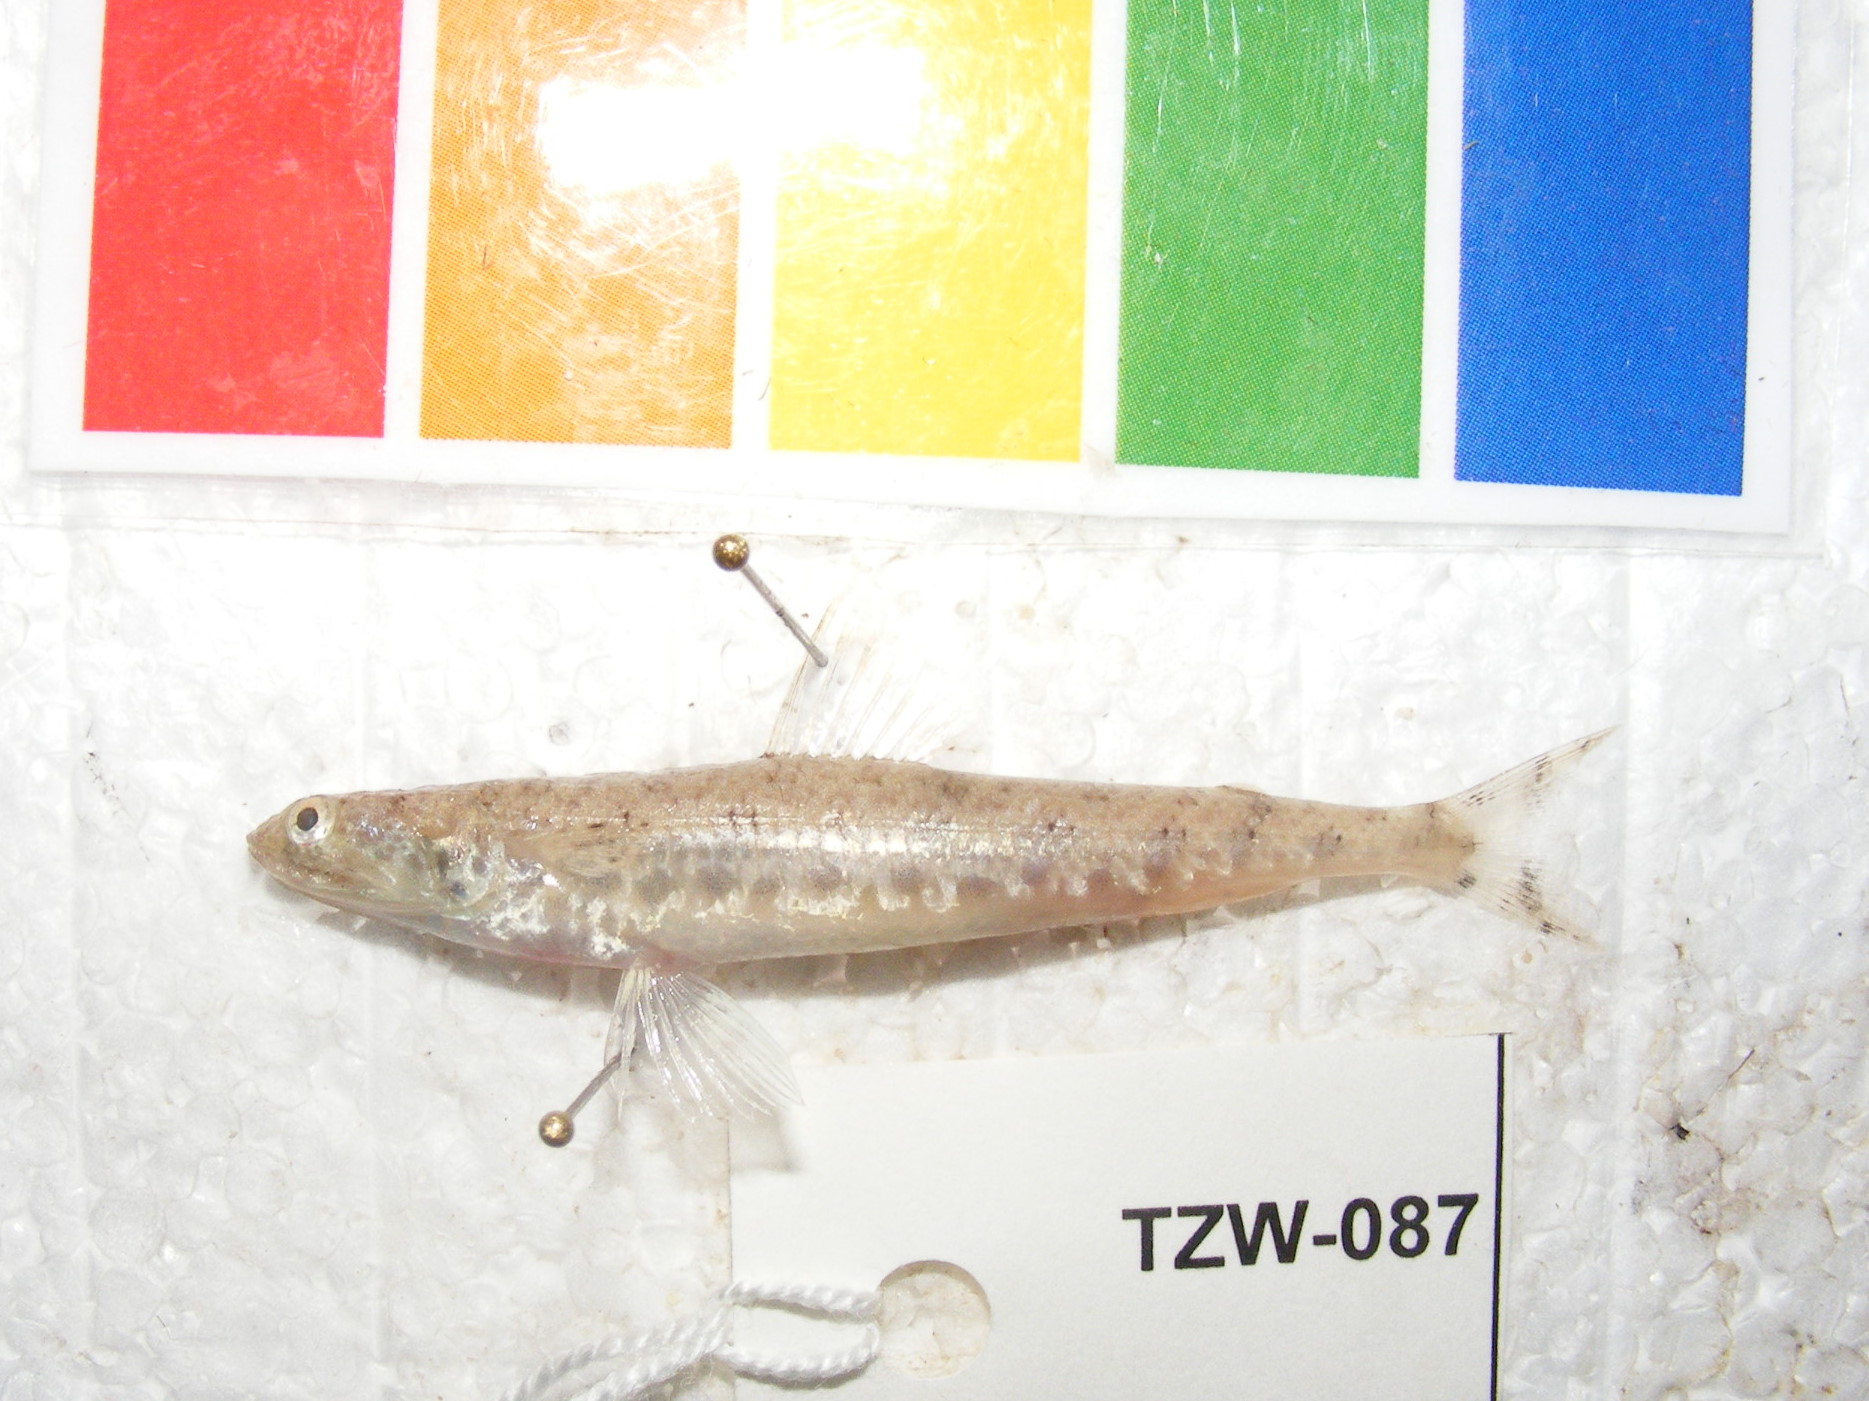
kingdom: Animalia
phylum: Chordata
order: Aulopiformes
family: Synodontidae
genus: Saurida
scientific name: Saurida nebulosa
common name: Nebulous lizardfish
